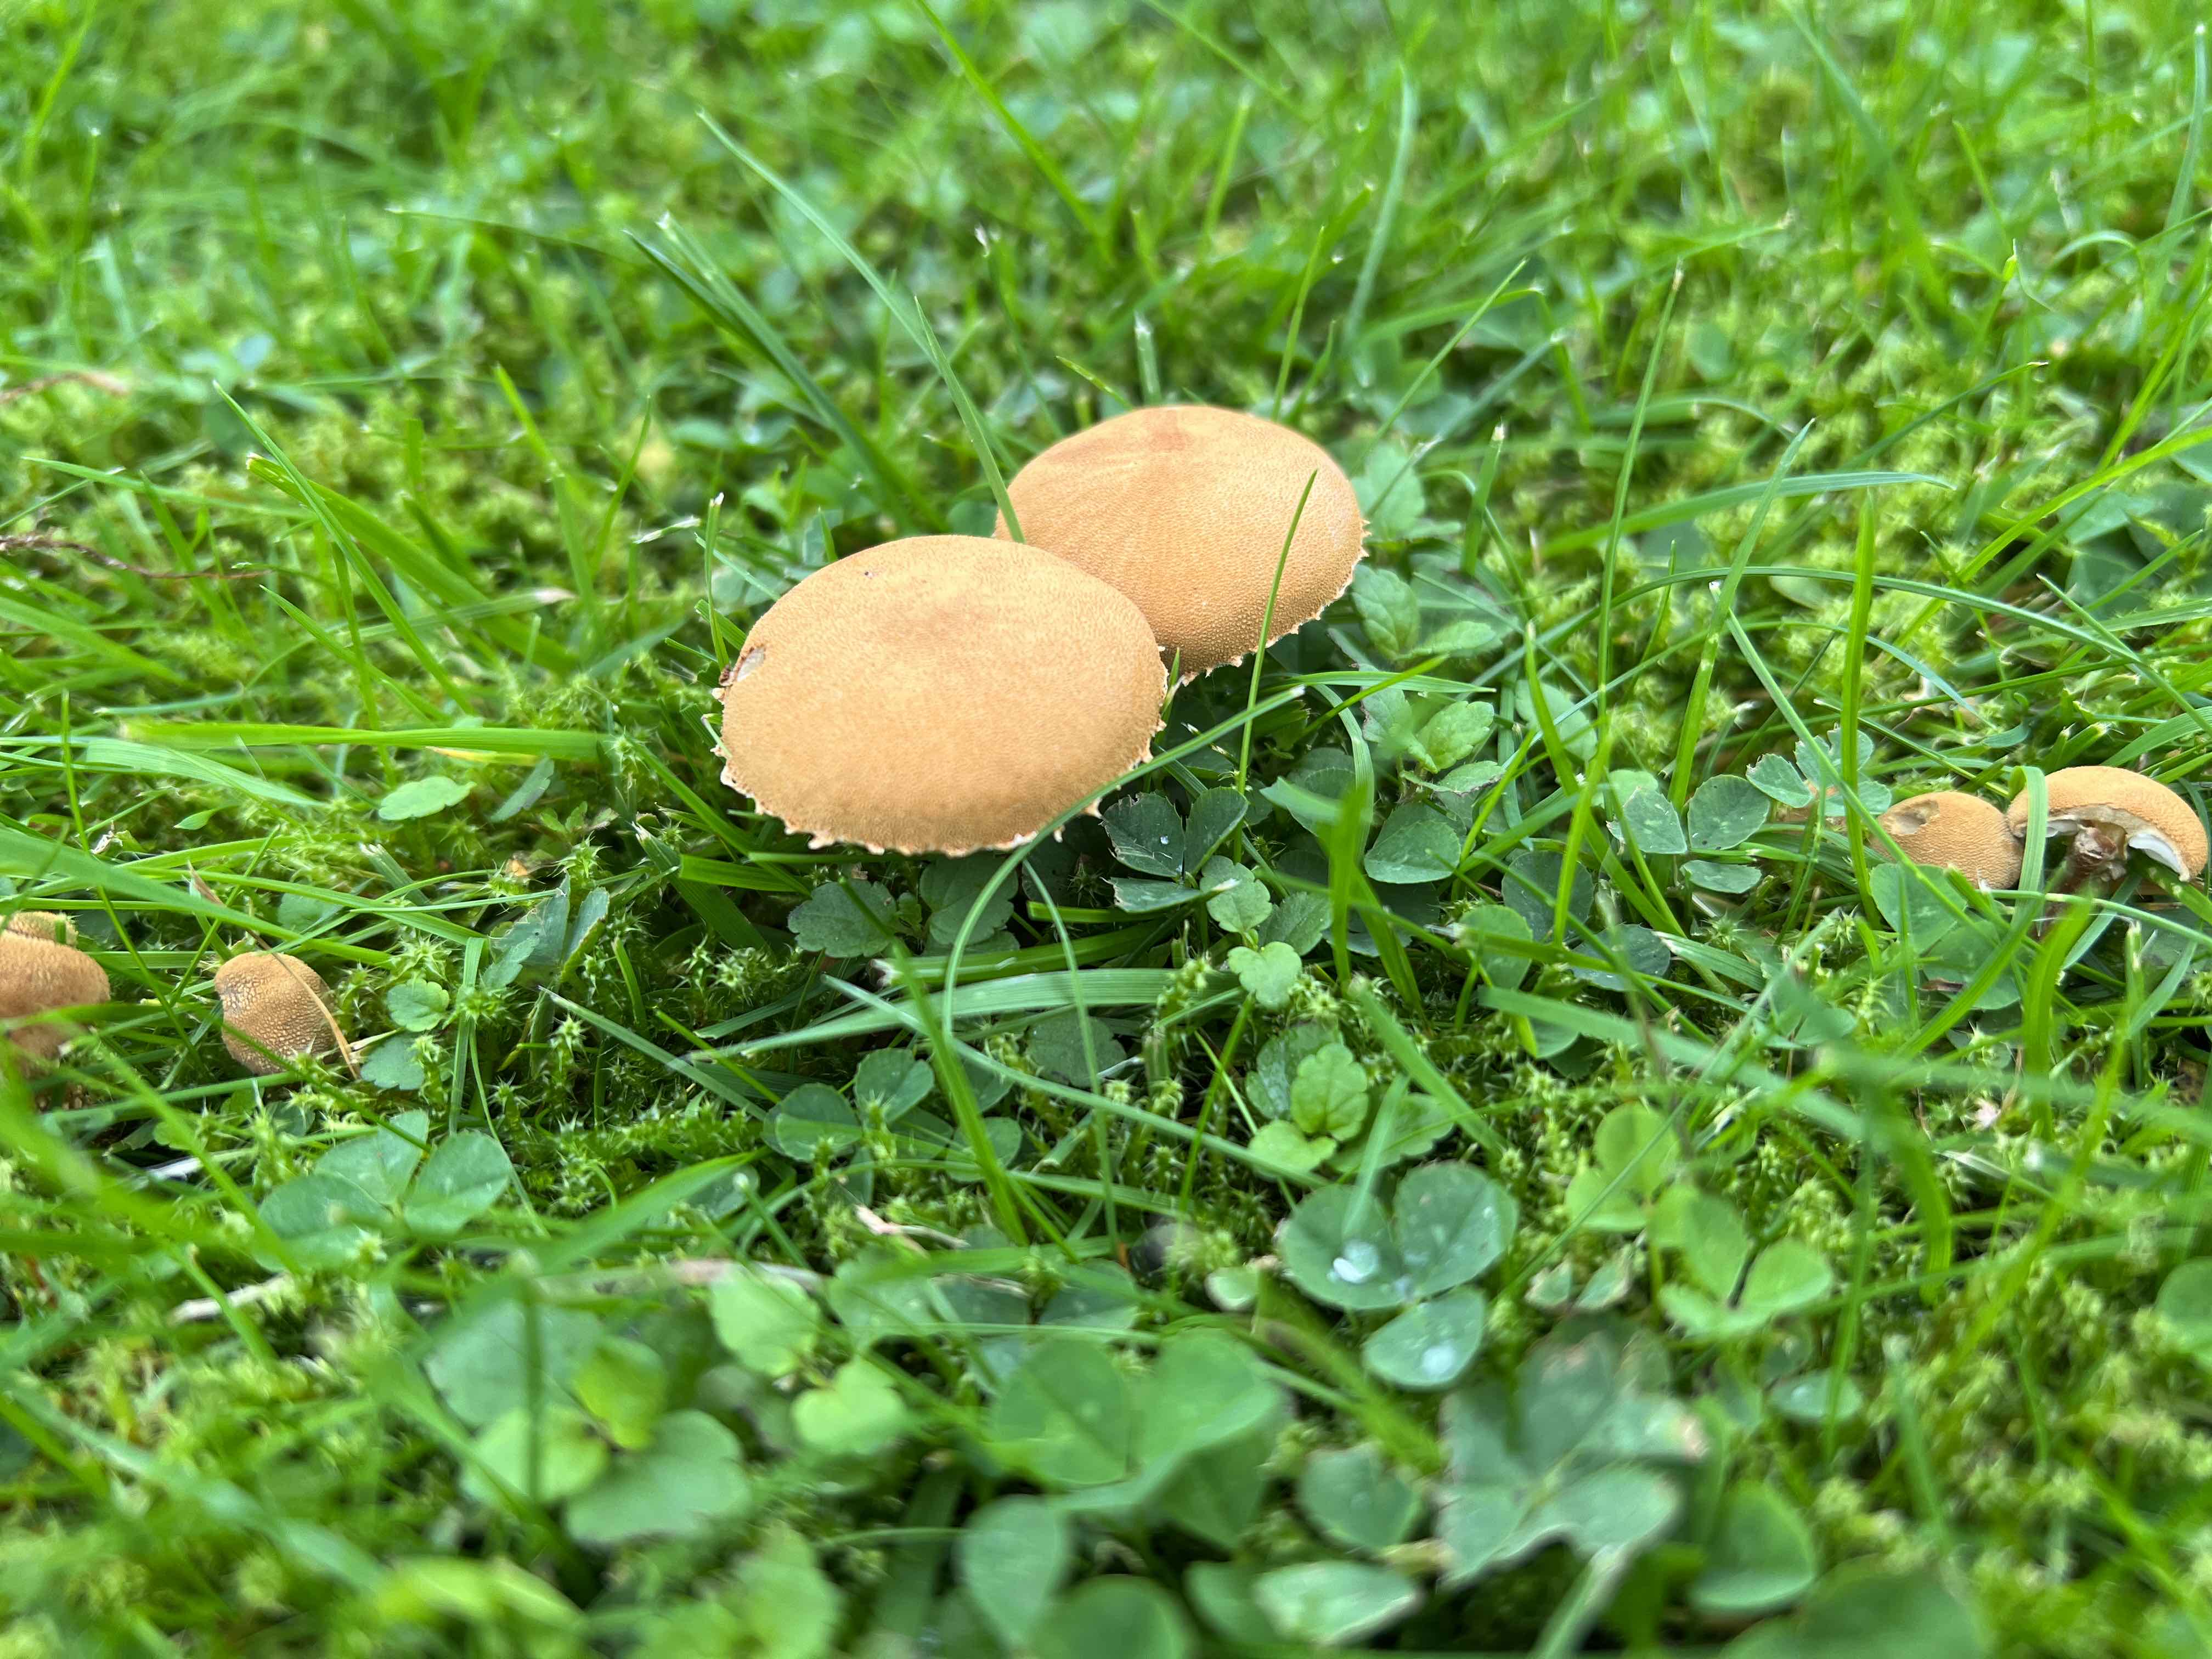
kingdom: Fungi
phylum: Basidiomycota
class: Agaricomycetes
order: Agaricales
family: Tricholomataceae
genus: Cystoderma
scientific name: Cystoderma amianthinum
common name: okkergul grynhat
